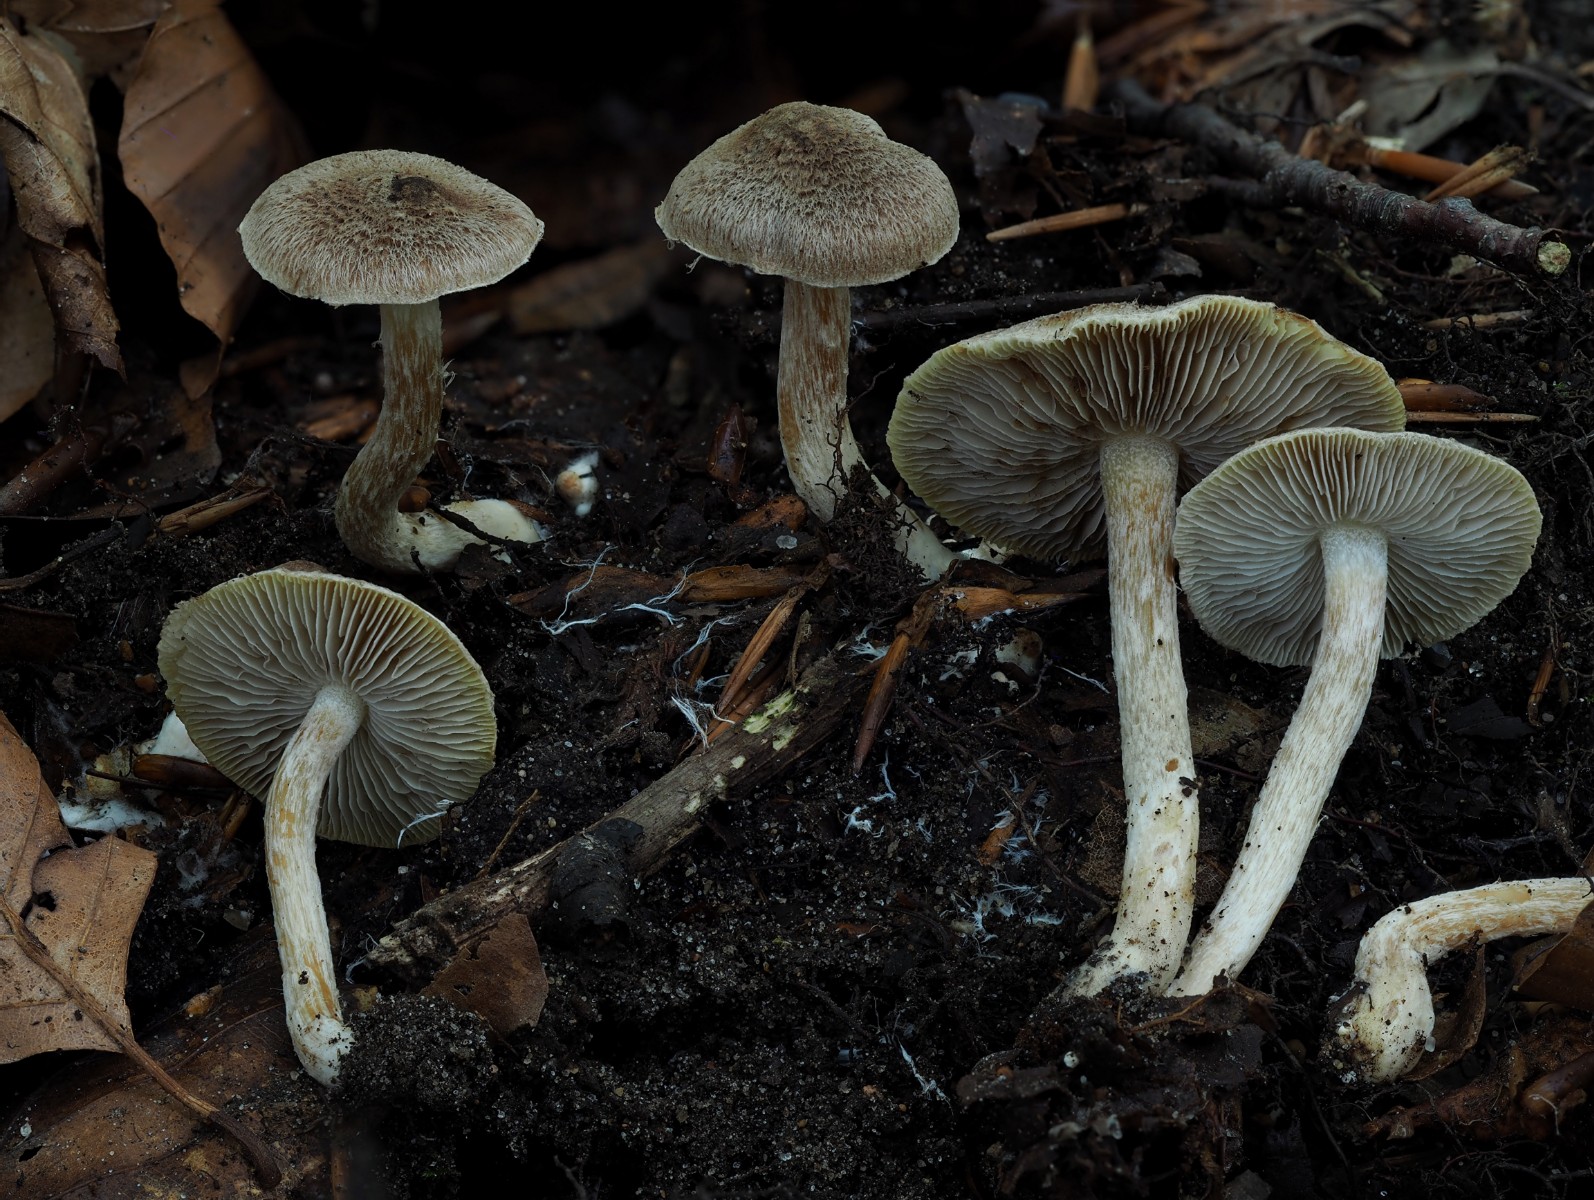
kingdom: Fungi
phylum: Basidiomycota
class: Agaricomycetes
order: Agaricales
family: Inocybaceae
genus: Inocybe
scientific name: Inocybe
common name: trævlhat
